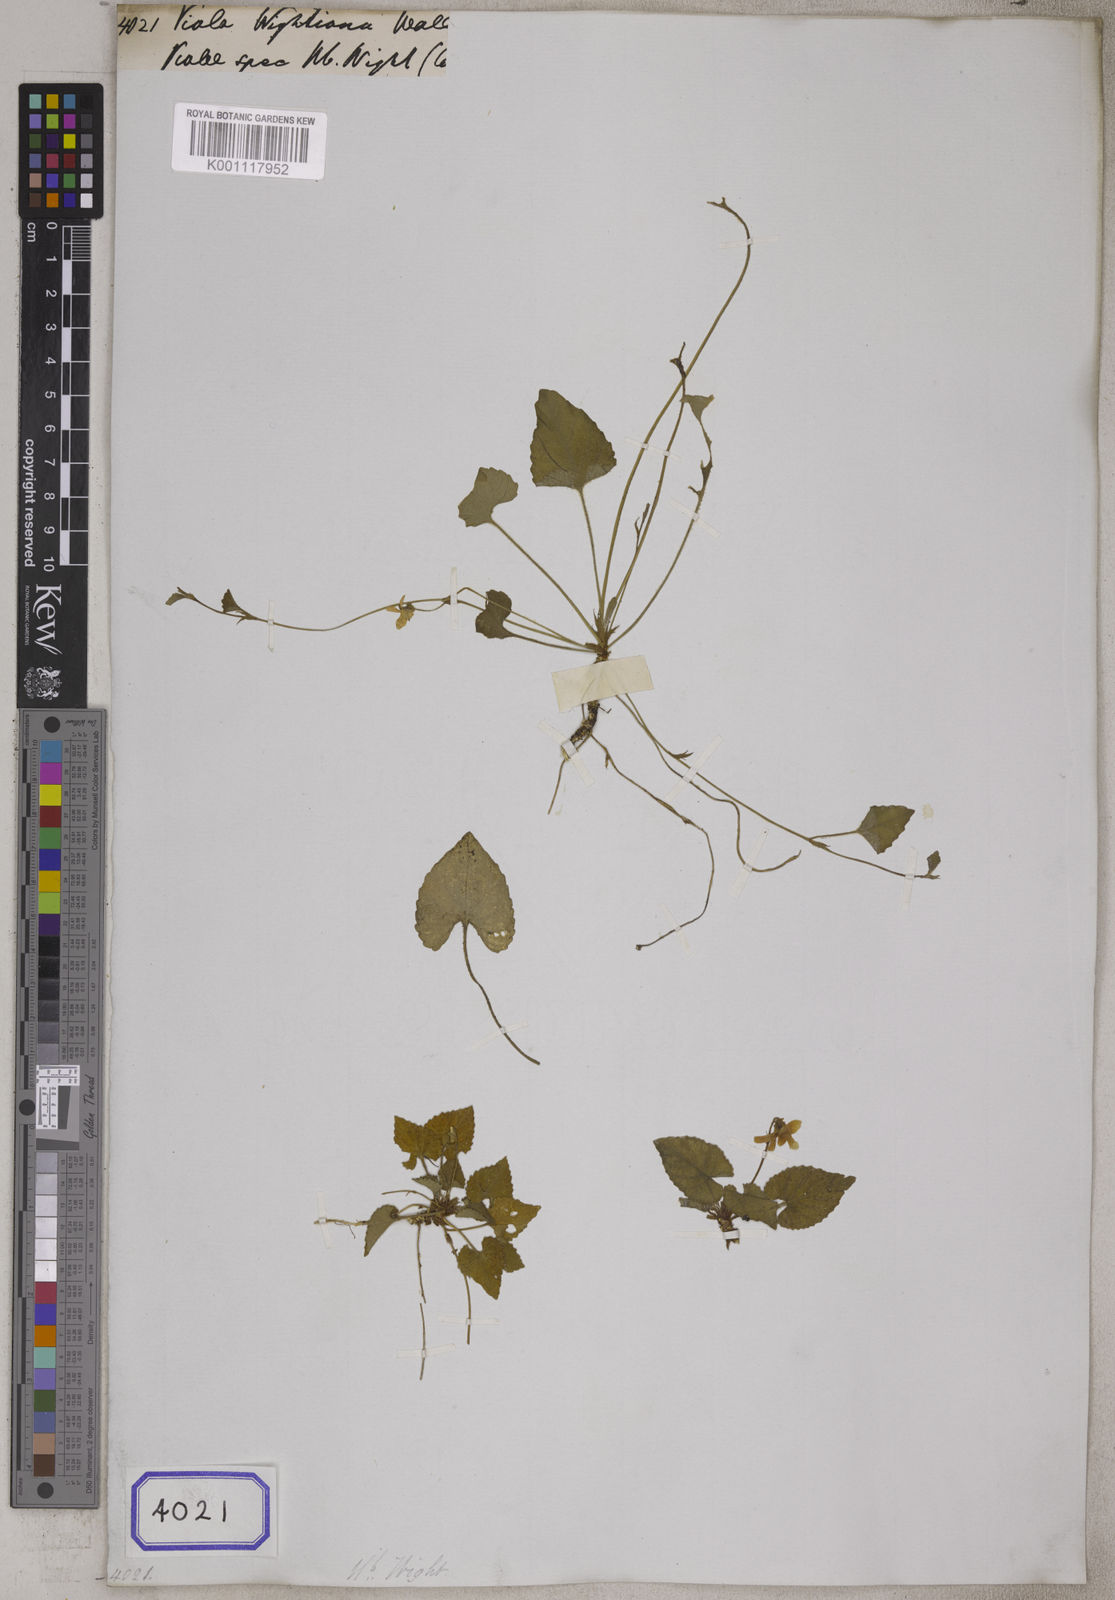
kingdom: Plantae
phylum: Tracheophyta
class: Magnoliopsida
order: Malpighiales
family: Violaceae
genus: Viola
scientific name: Viola
